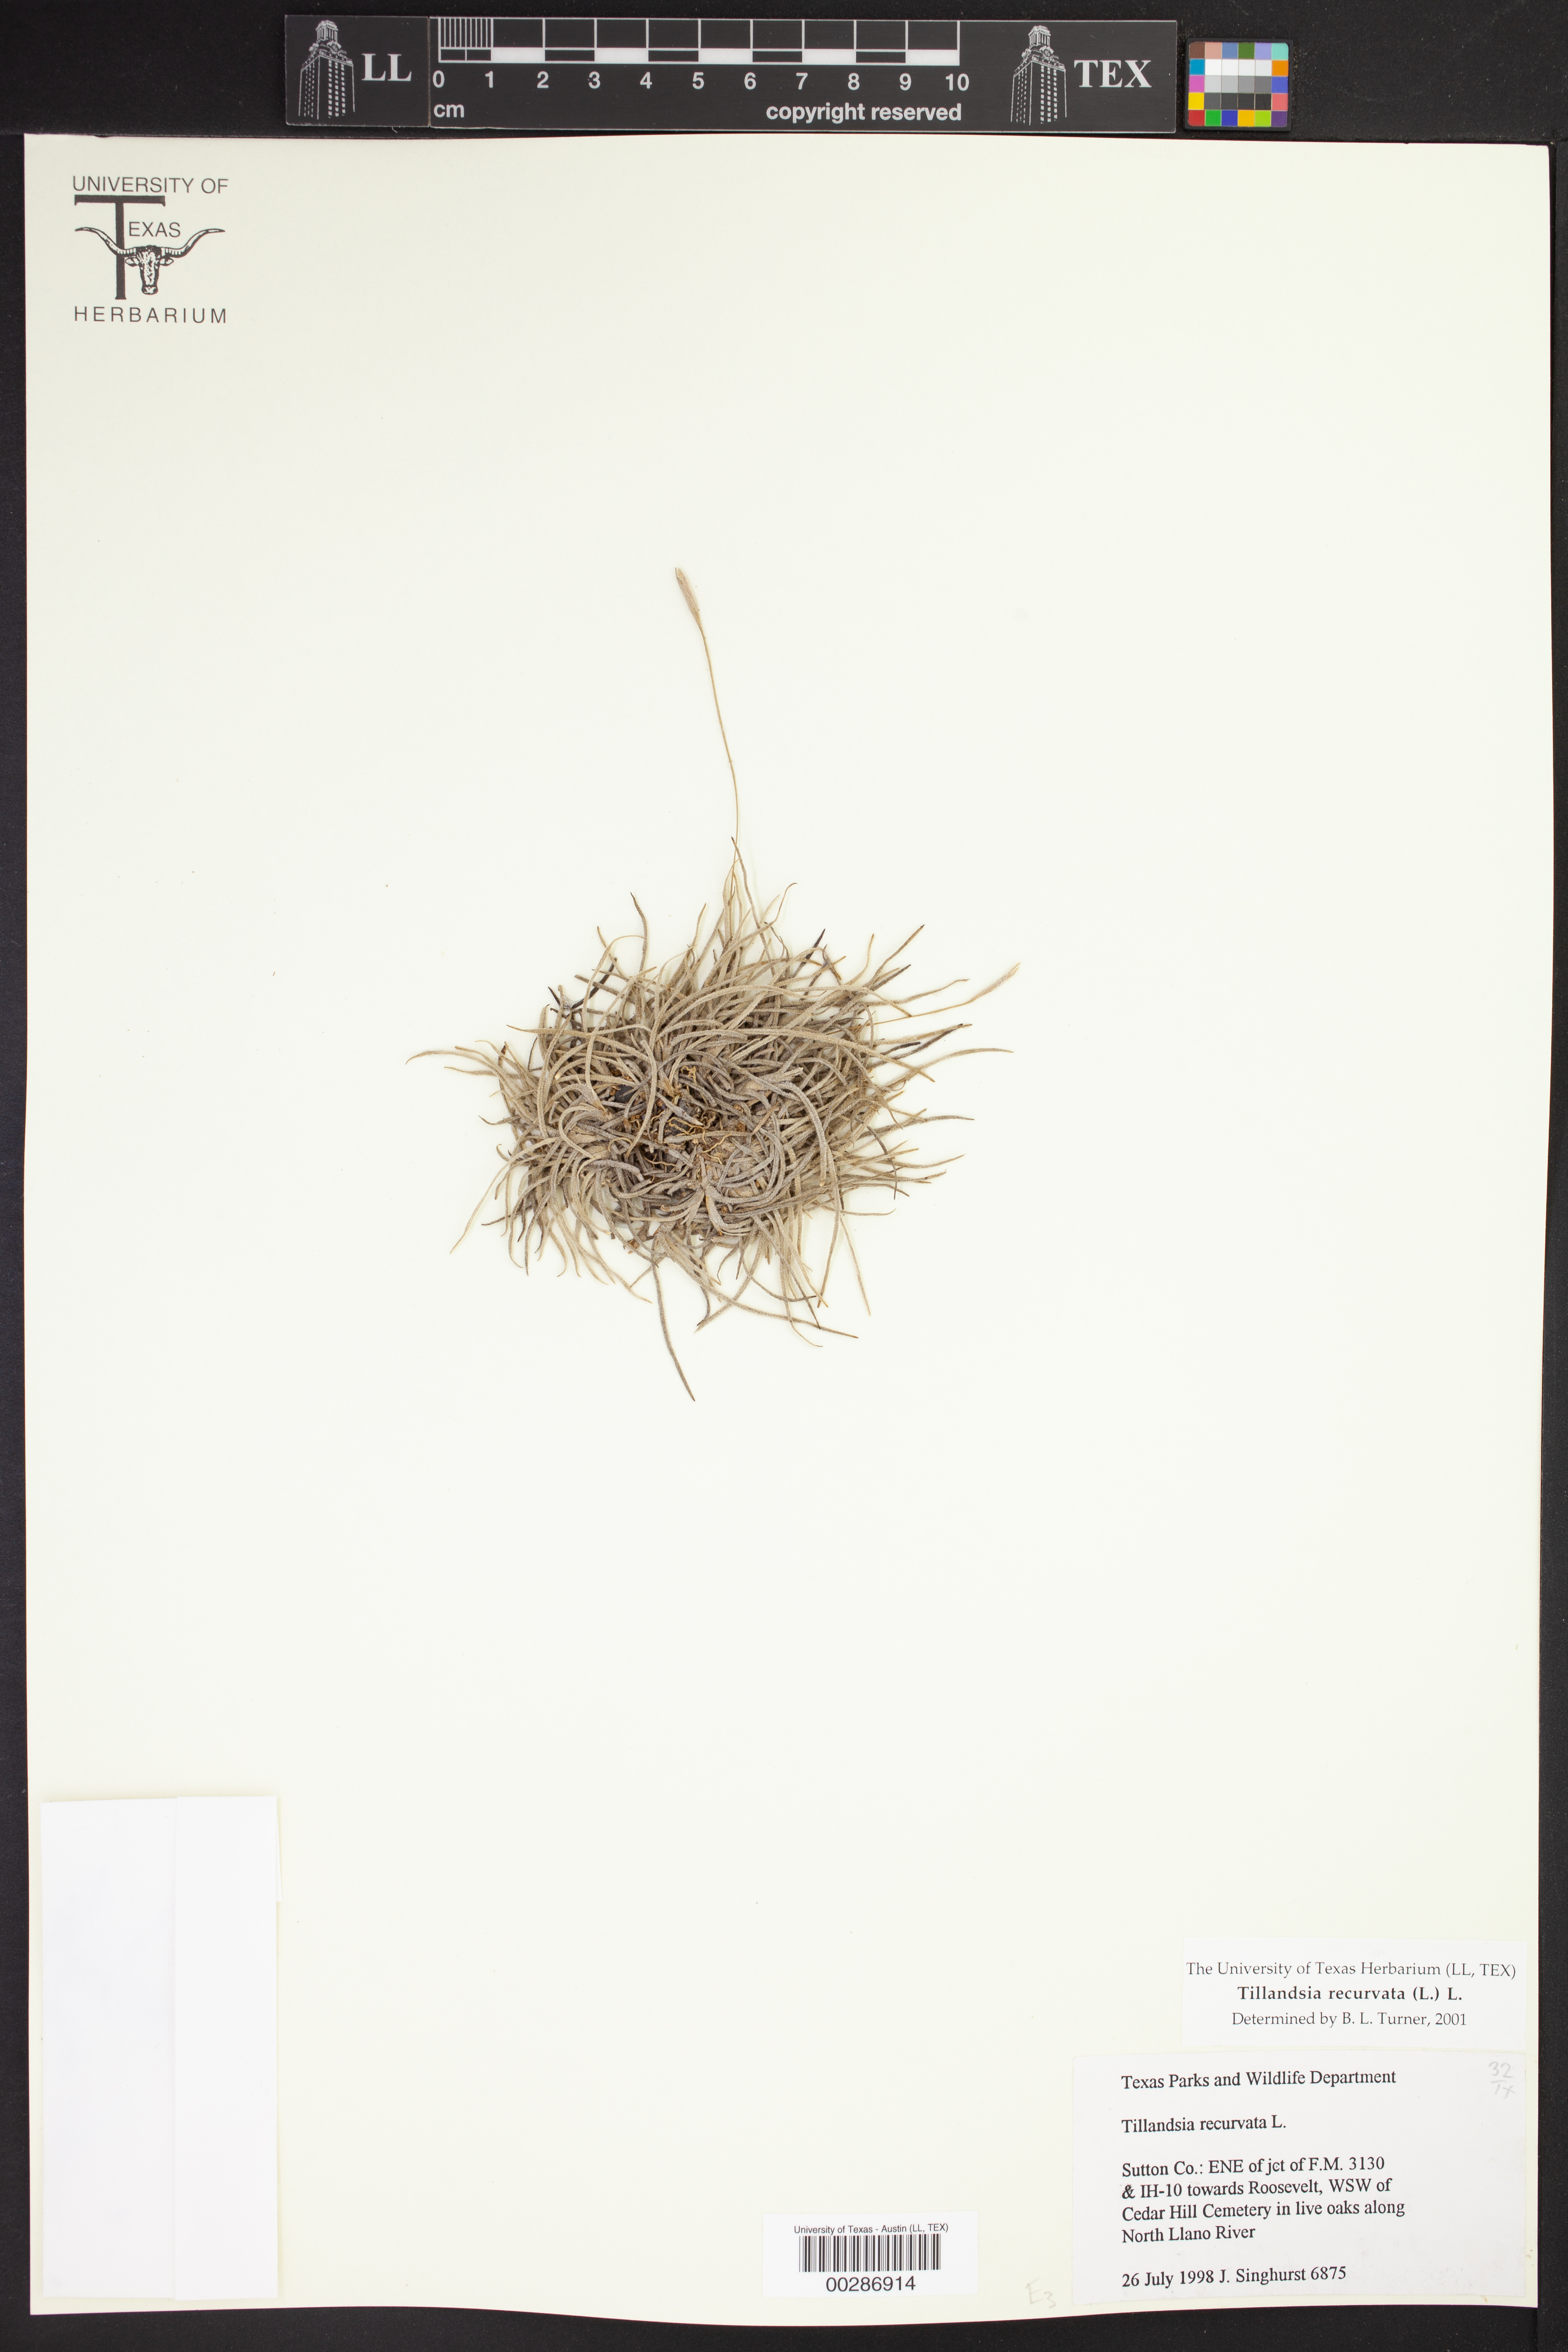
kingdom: Plantae
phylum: Tracheophyta
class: Liliopsida
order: Poales
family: Bromeliaceae
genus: Tillandsia
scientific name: Tillandsia recurvata
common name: Small ballmoss
